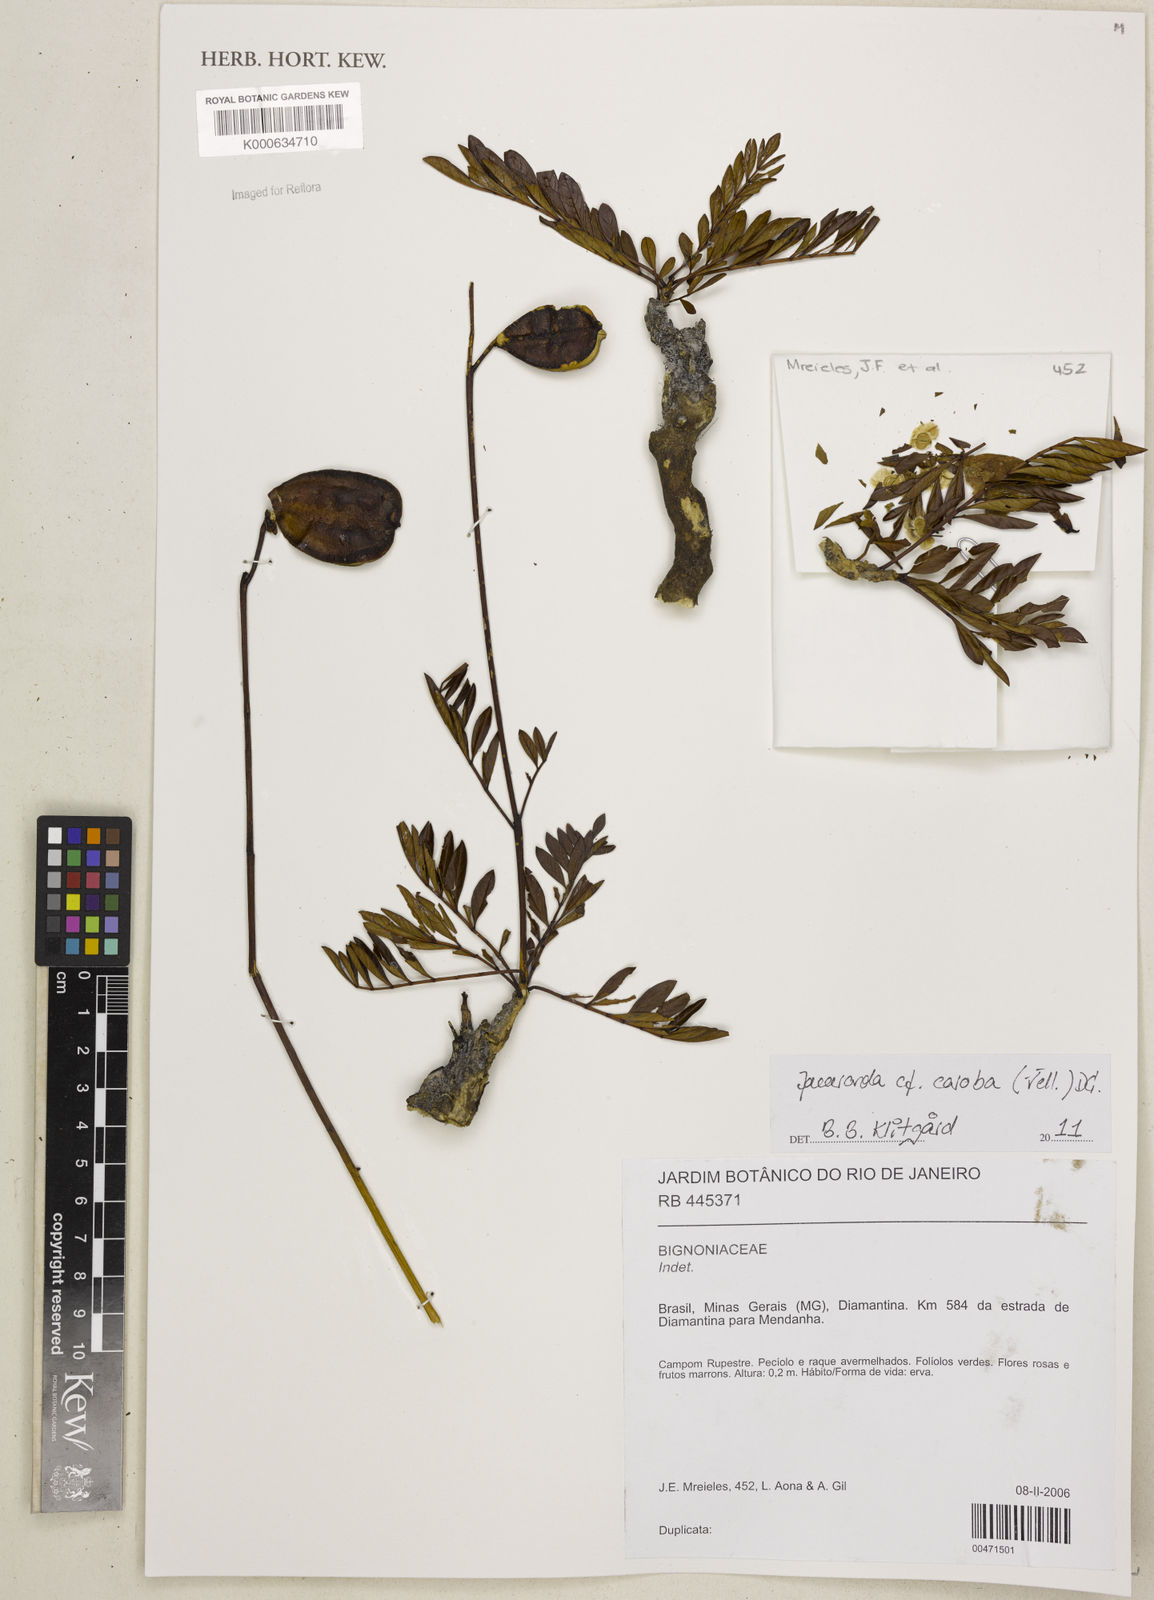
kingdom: Plantae
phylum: Tracheophyta
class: Magnoliopsida
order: Lamiales
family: Bignoniaceae
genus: Jacaranda
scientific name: Jacaranda caroba
